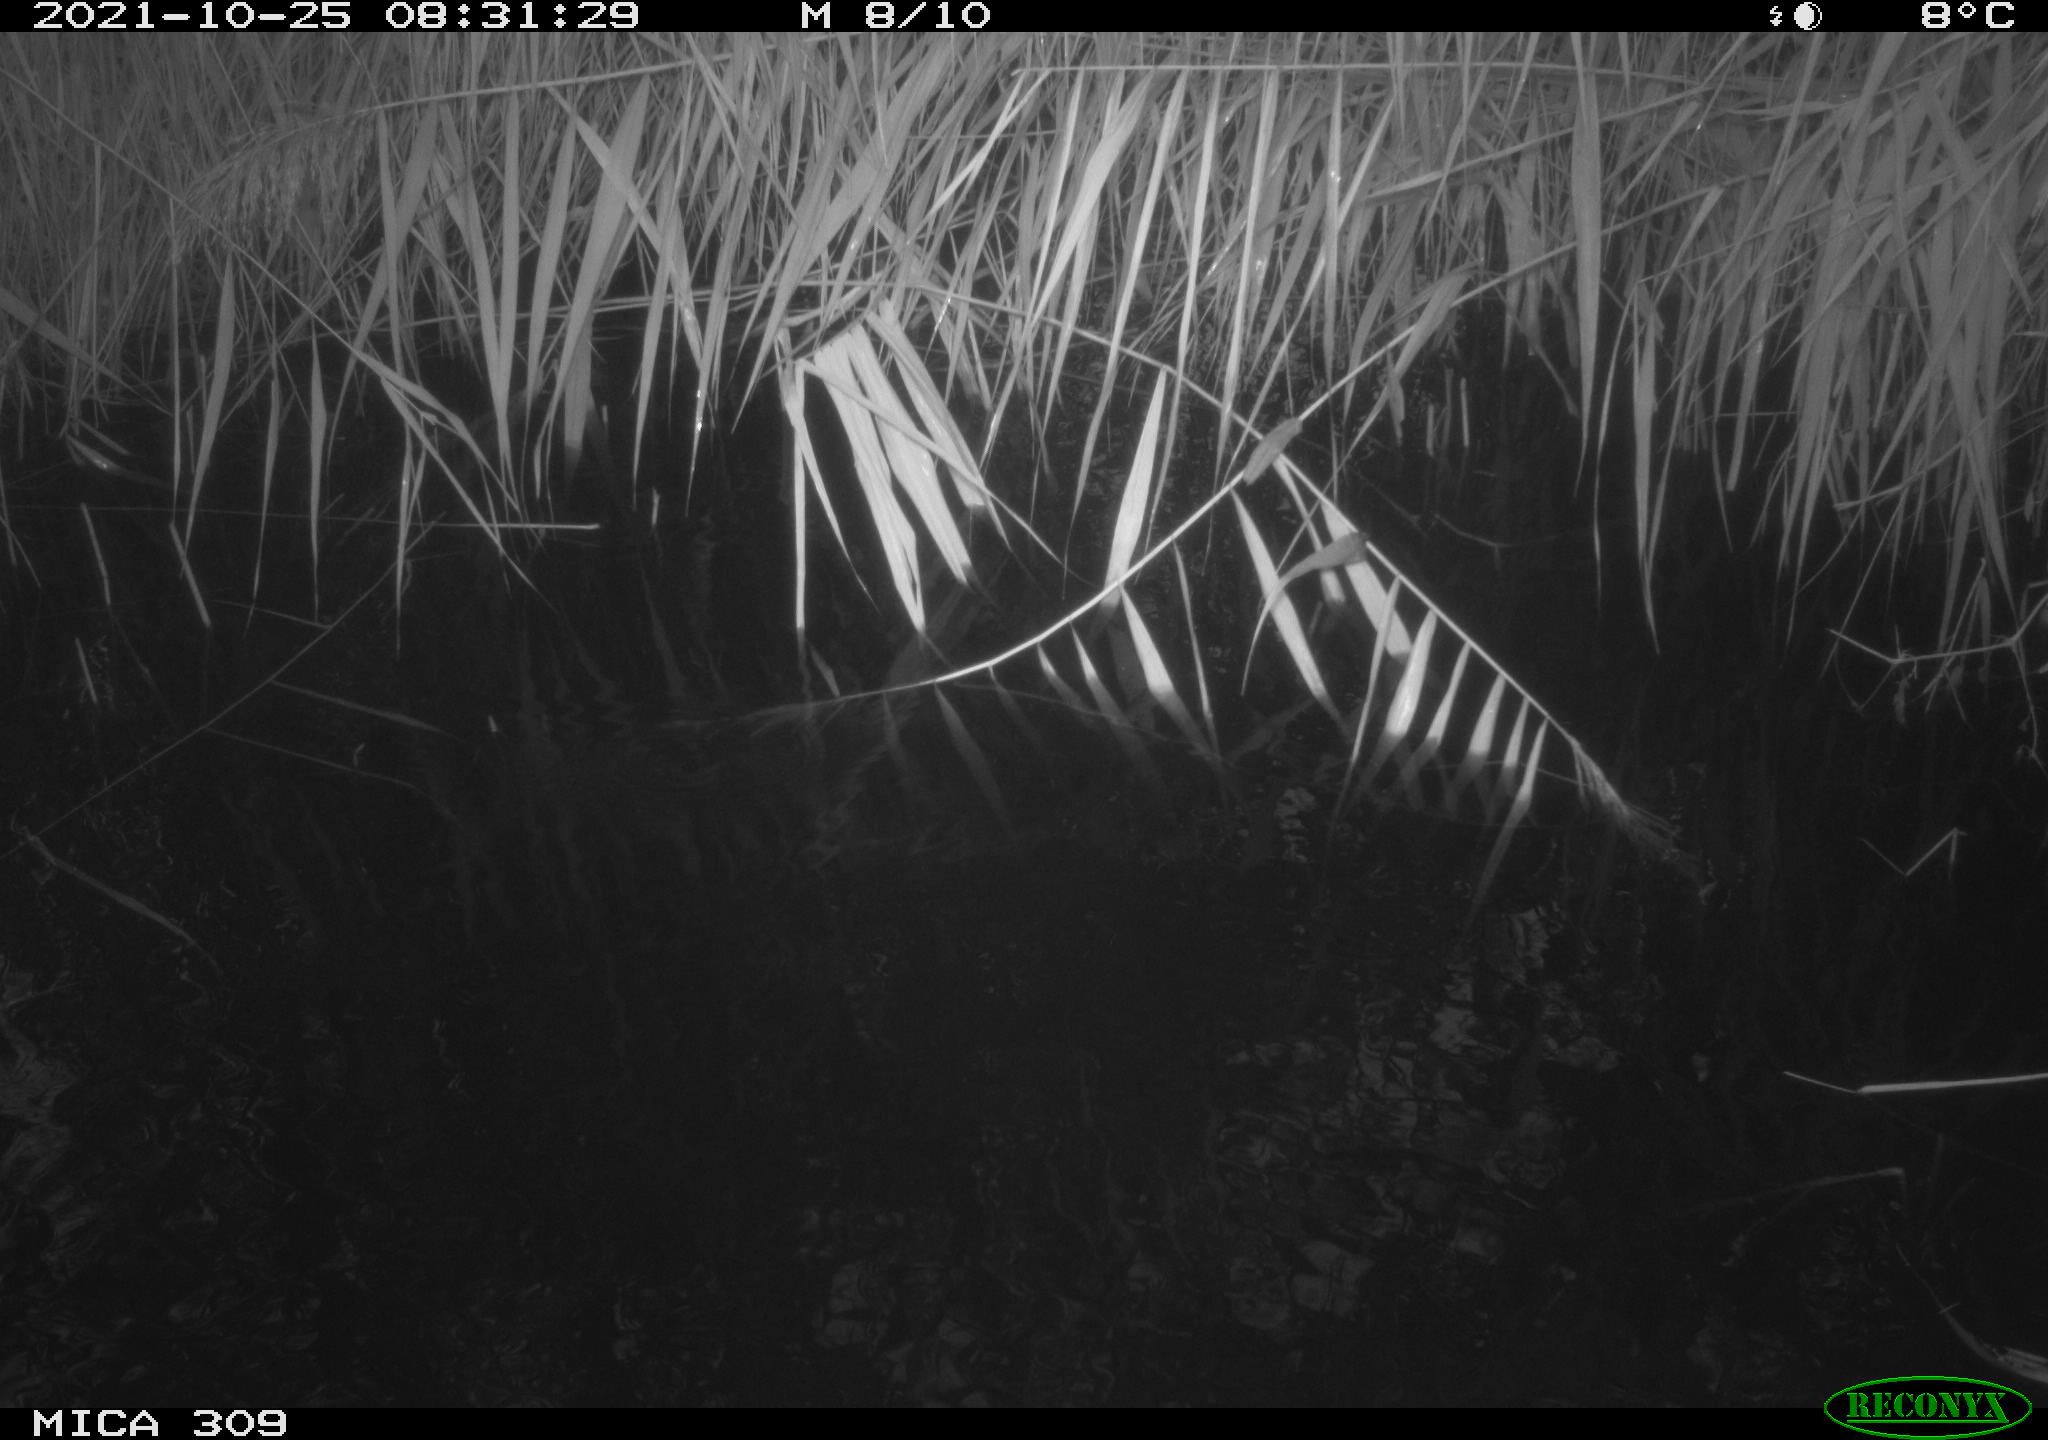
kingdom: Animalia
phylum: Chordata
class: Aves
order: Gruiformes
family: Rallidae
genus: Gallinula
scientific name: Gallinula chloropus
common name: Common moorhen
